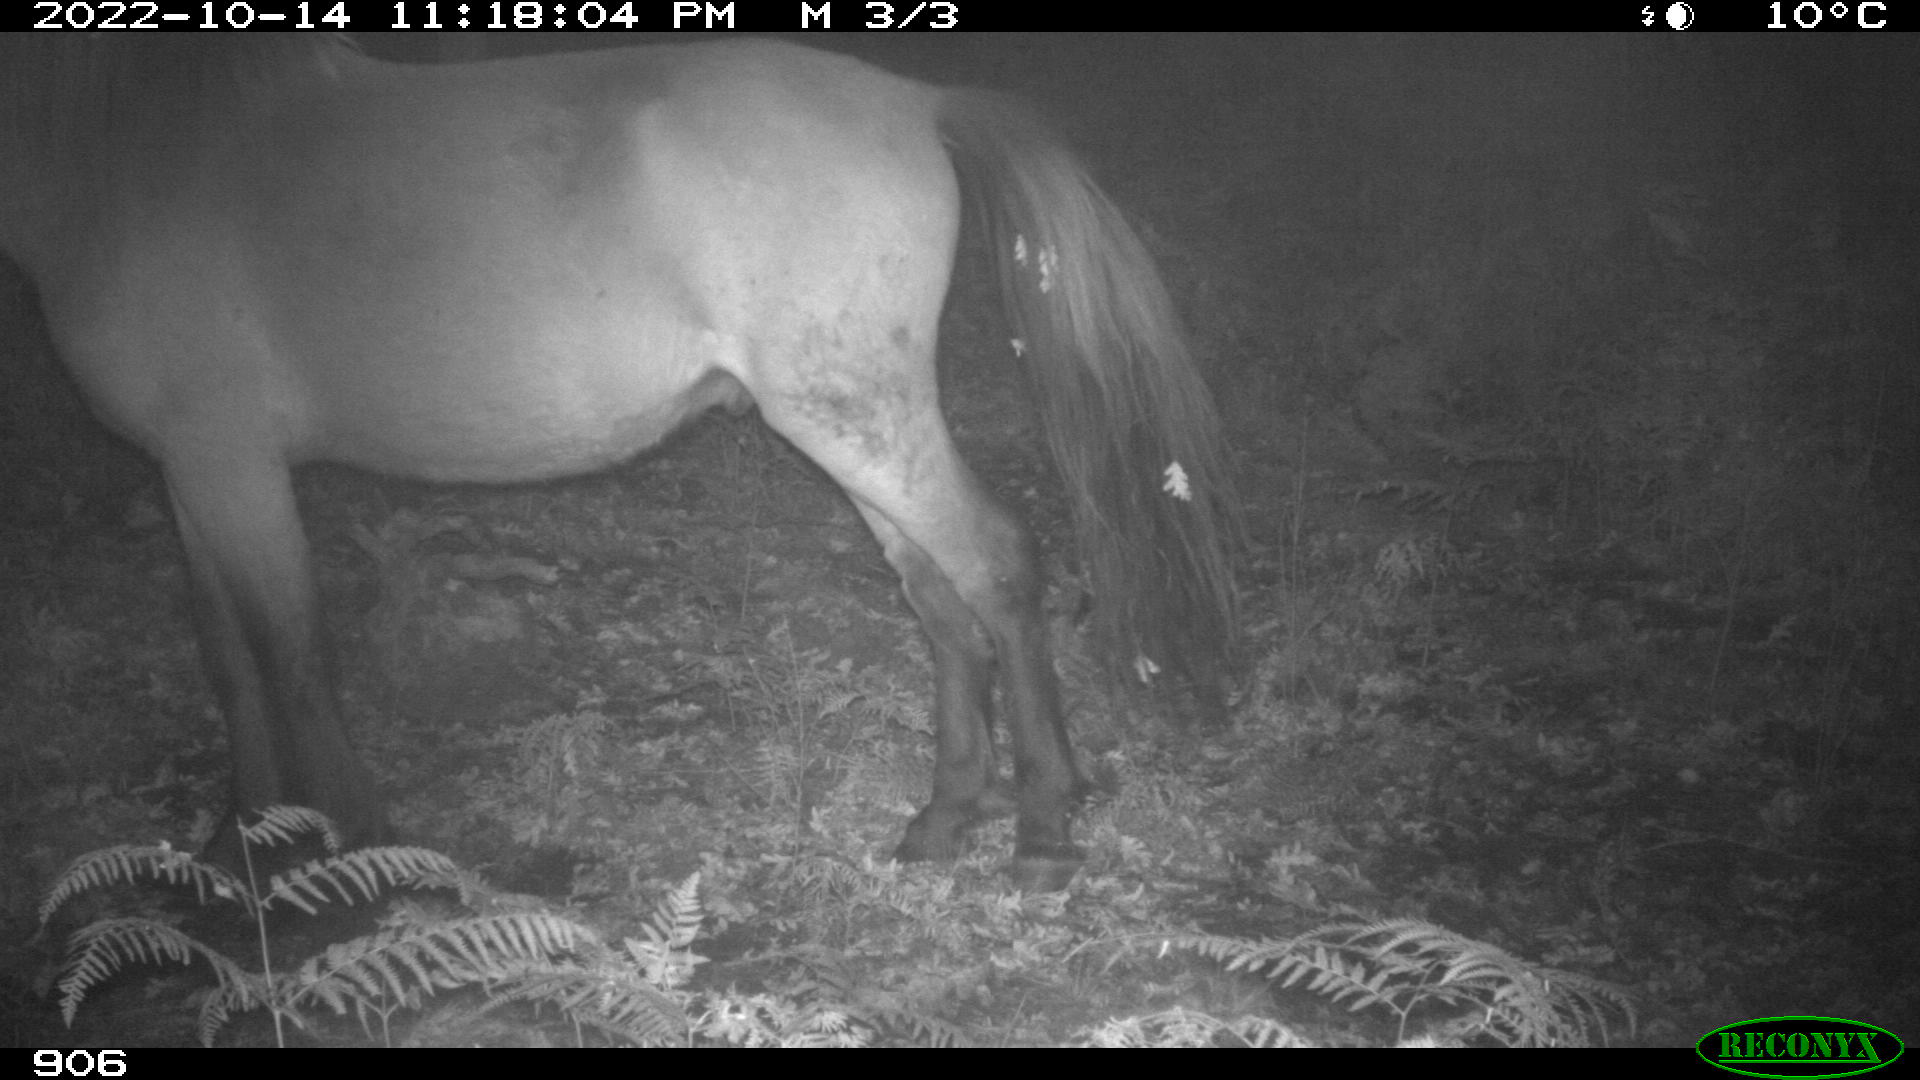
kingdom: Animalia
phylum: Chordata
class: Mammalia
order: Perissodactyla
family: Equidae
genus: Equus
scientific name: Equus caballus
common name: Horse
